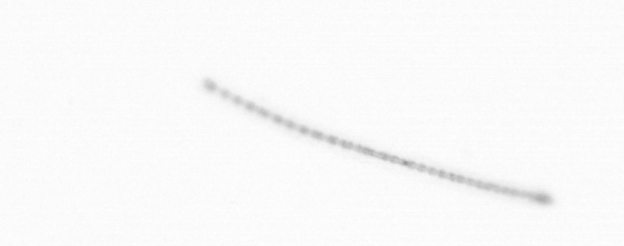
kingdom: Chromista
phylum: Ochrophyta
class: Bacillariophyceae
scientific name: Bacillariophyceae
